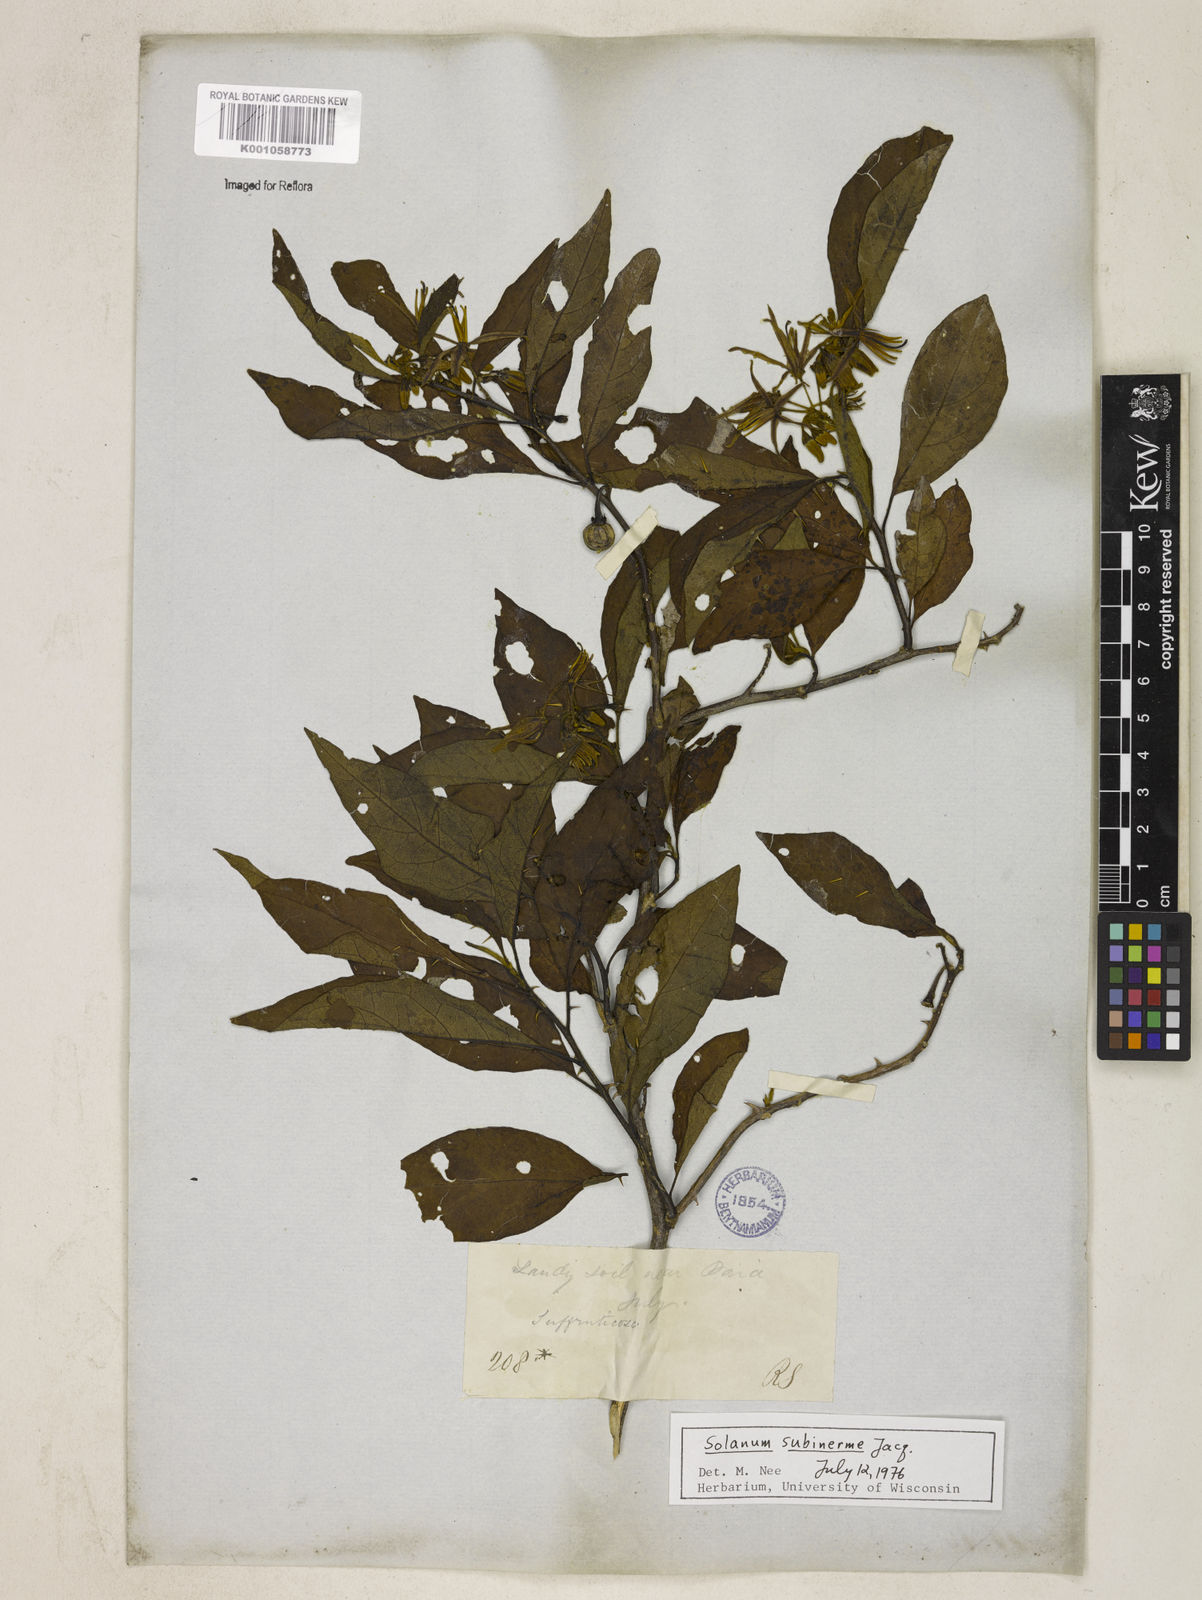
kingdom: Plantae
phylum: Tracheophyta
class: Magnoliopsida
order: Solanales
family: Solanaceae
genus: Solanum
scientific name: Solanum subinerme
